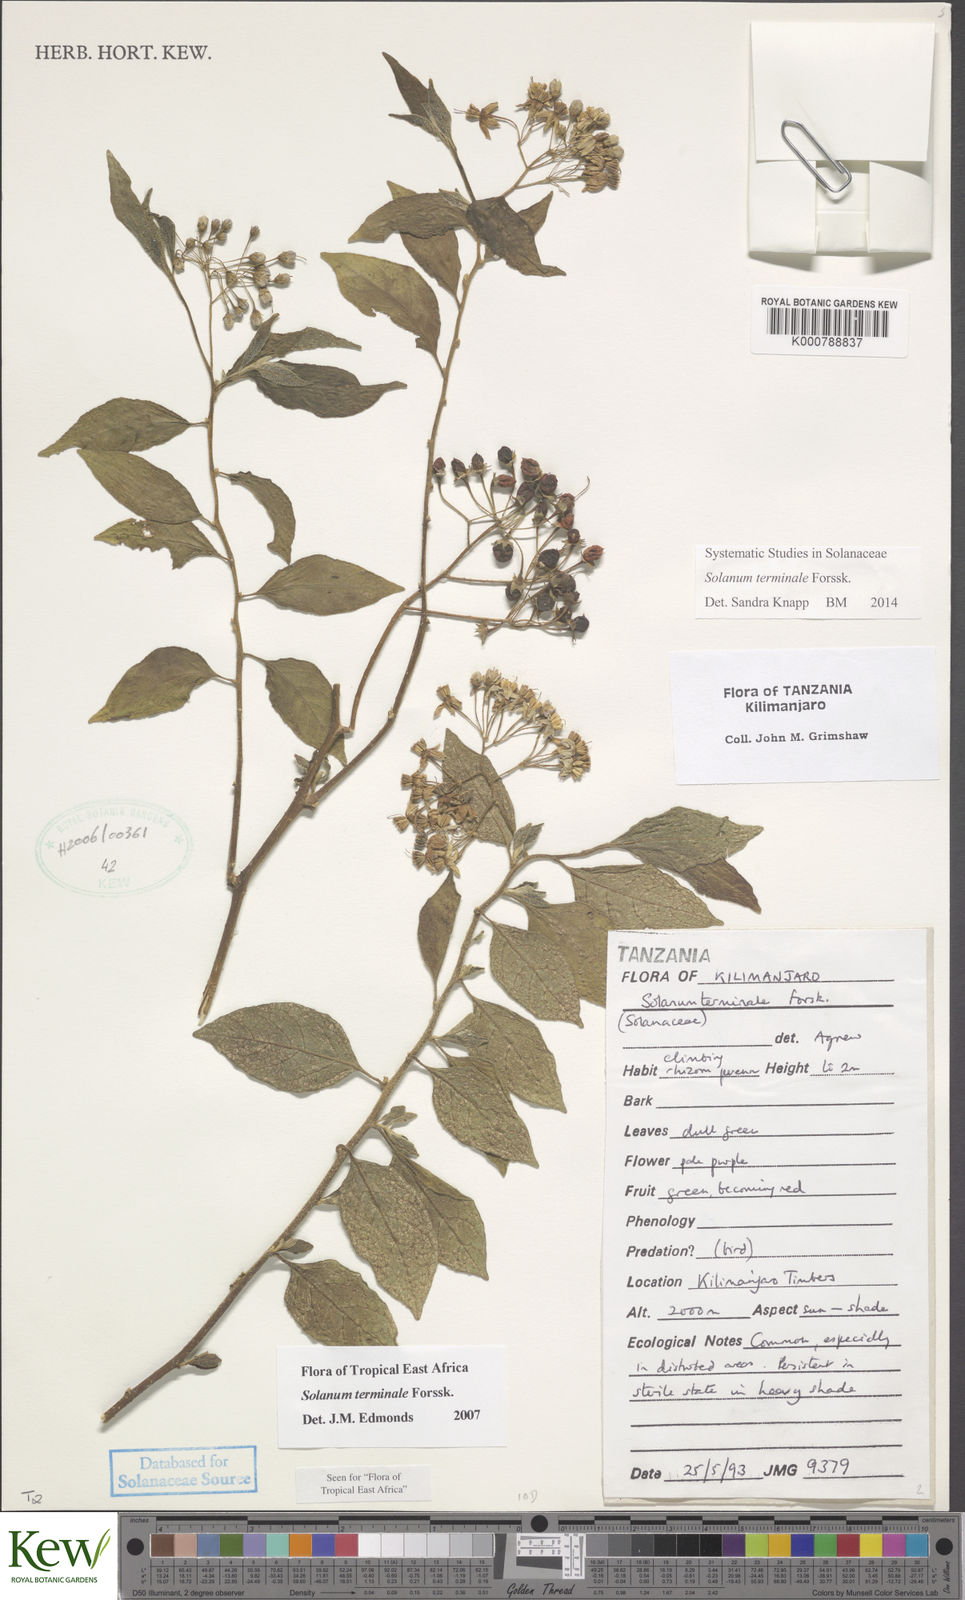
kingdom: Plantae
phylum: Tracheophyta
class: Magnoliopsida
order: Solanales
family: Solanaceae
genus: Solanum
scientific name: Solanum terminale
